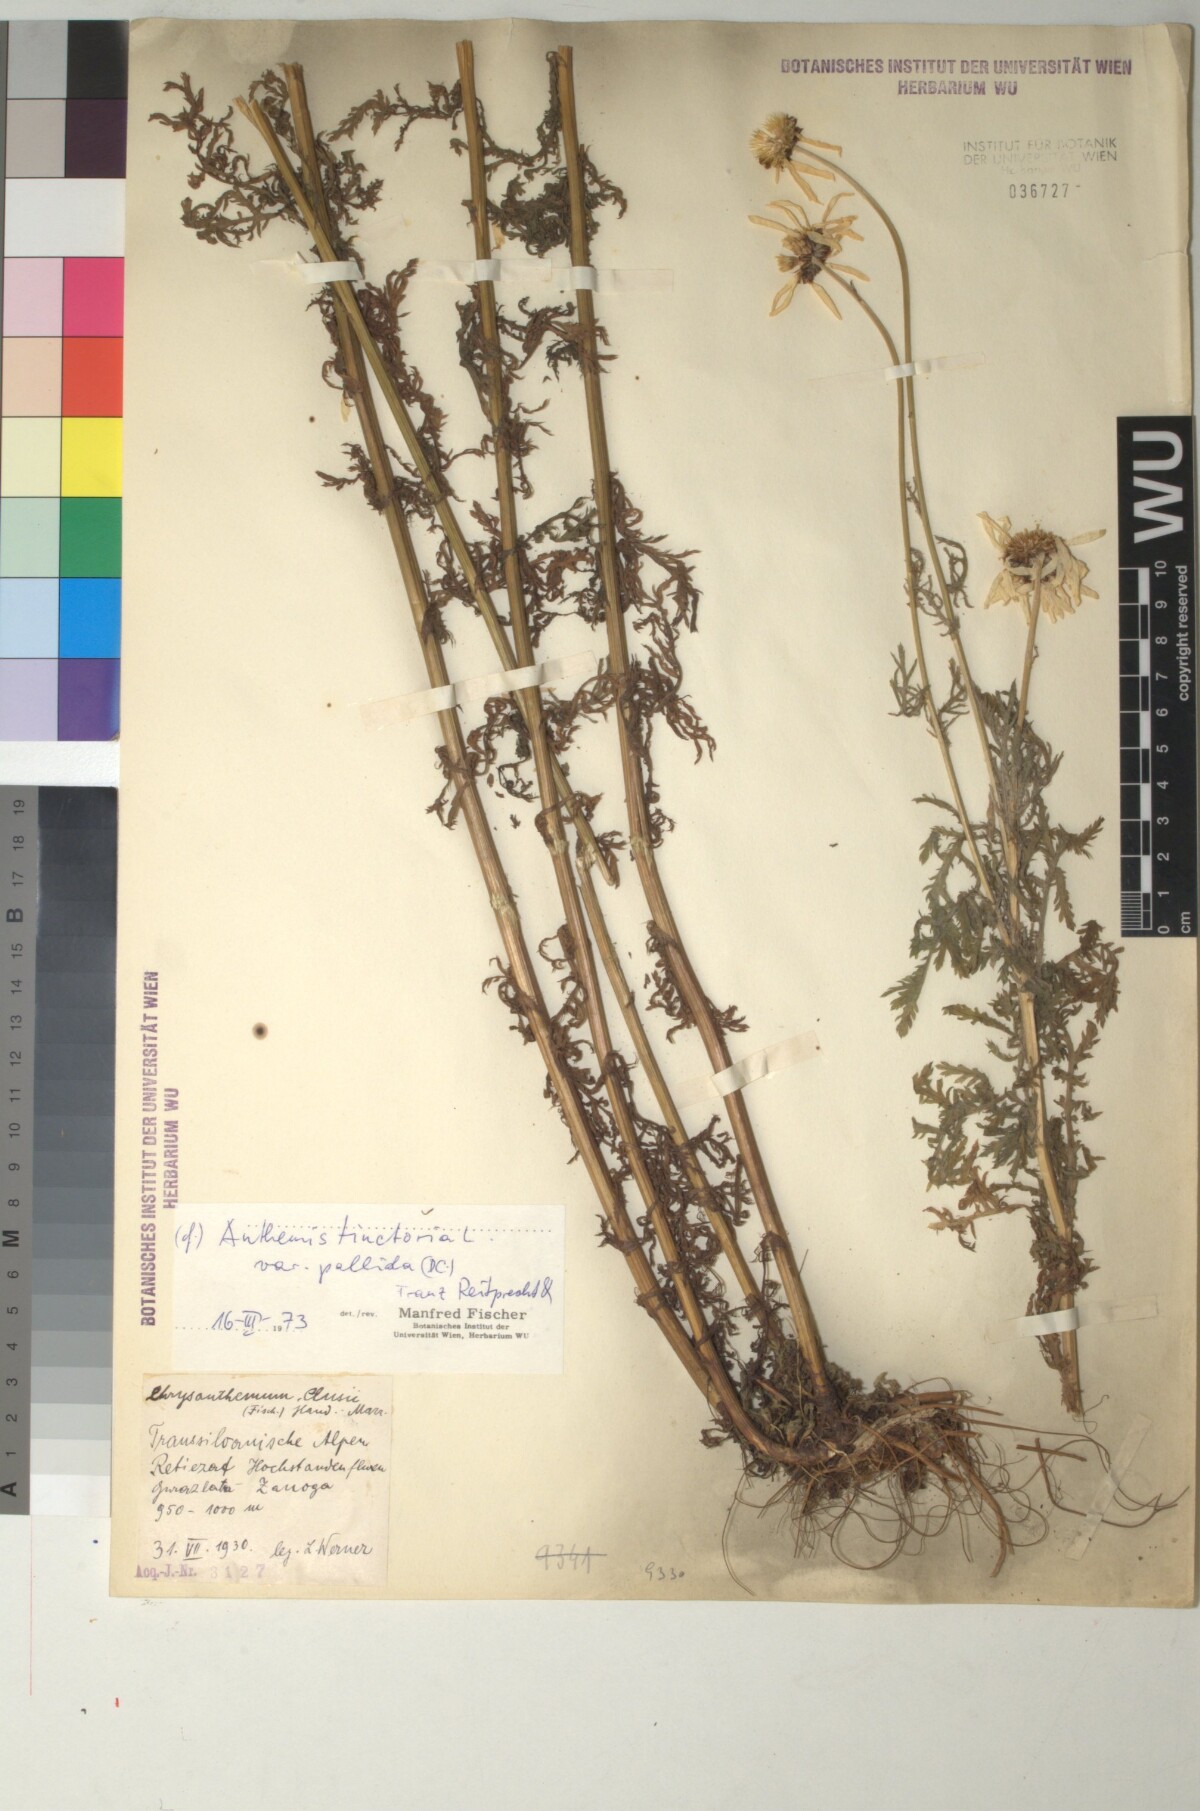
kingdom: Plantae
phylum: Tracheophyta
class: Magnoliopsida
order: Asterales
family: Asteraceae
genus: Cota
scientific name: Cota tinctoria
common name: Golden chamomile
